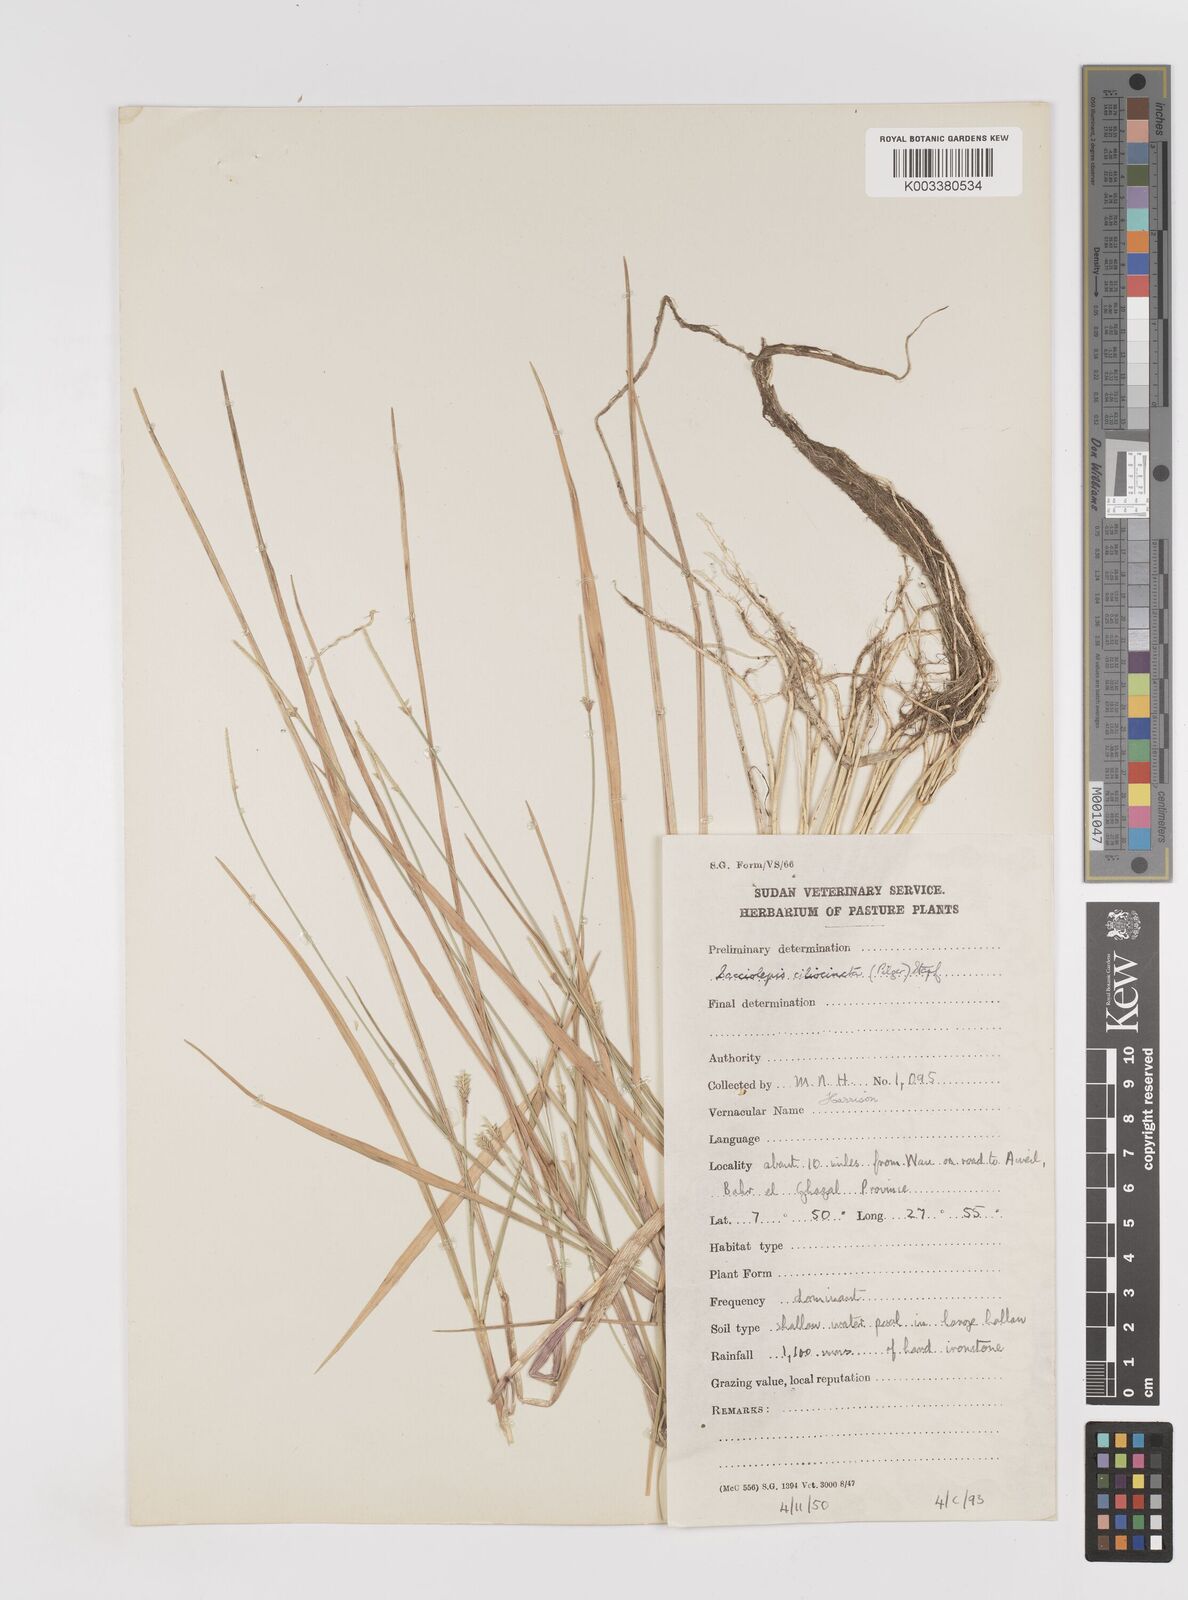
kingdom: Plantae
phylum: Tracheophyta
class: Liliopsida
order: Poales
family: Poaceae
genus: Sacciolepis
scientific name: Sacciolepis ciliocincta
